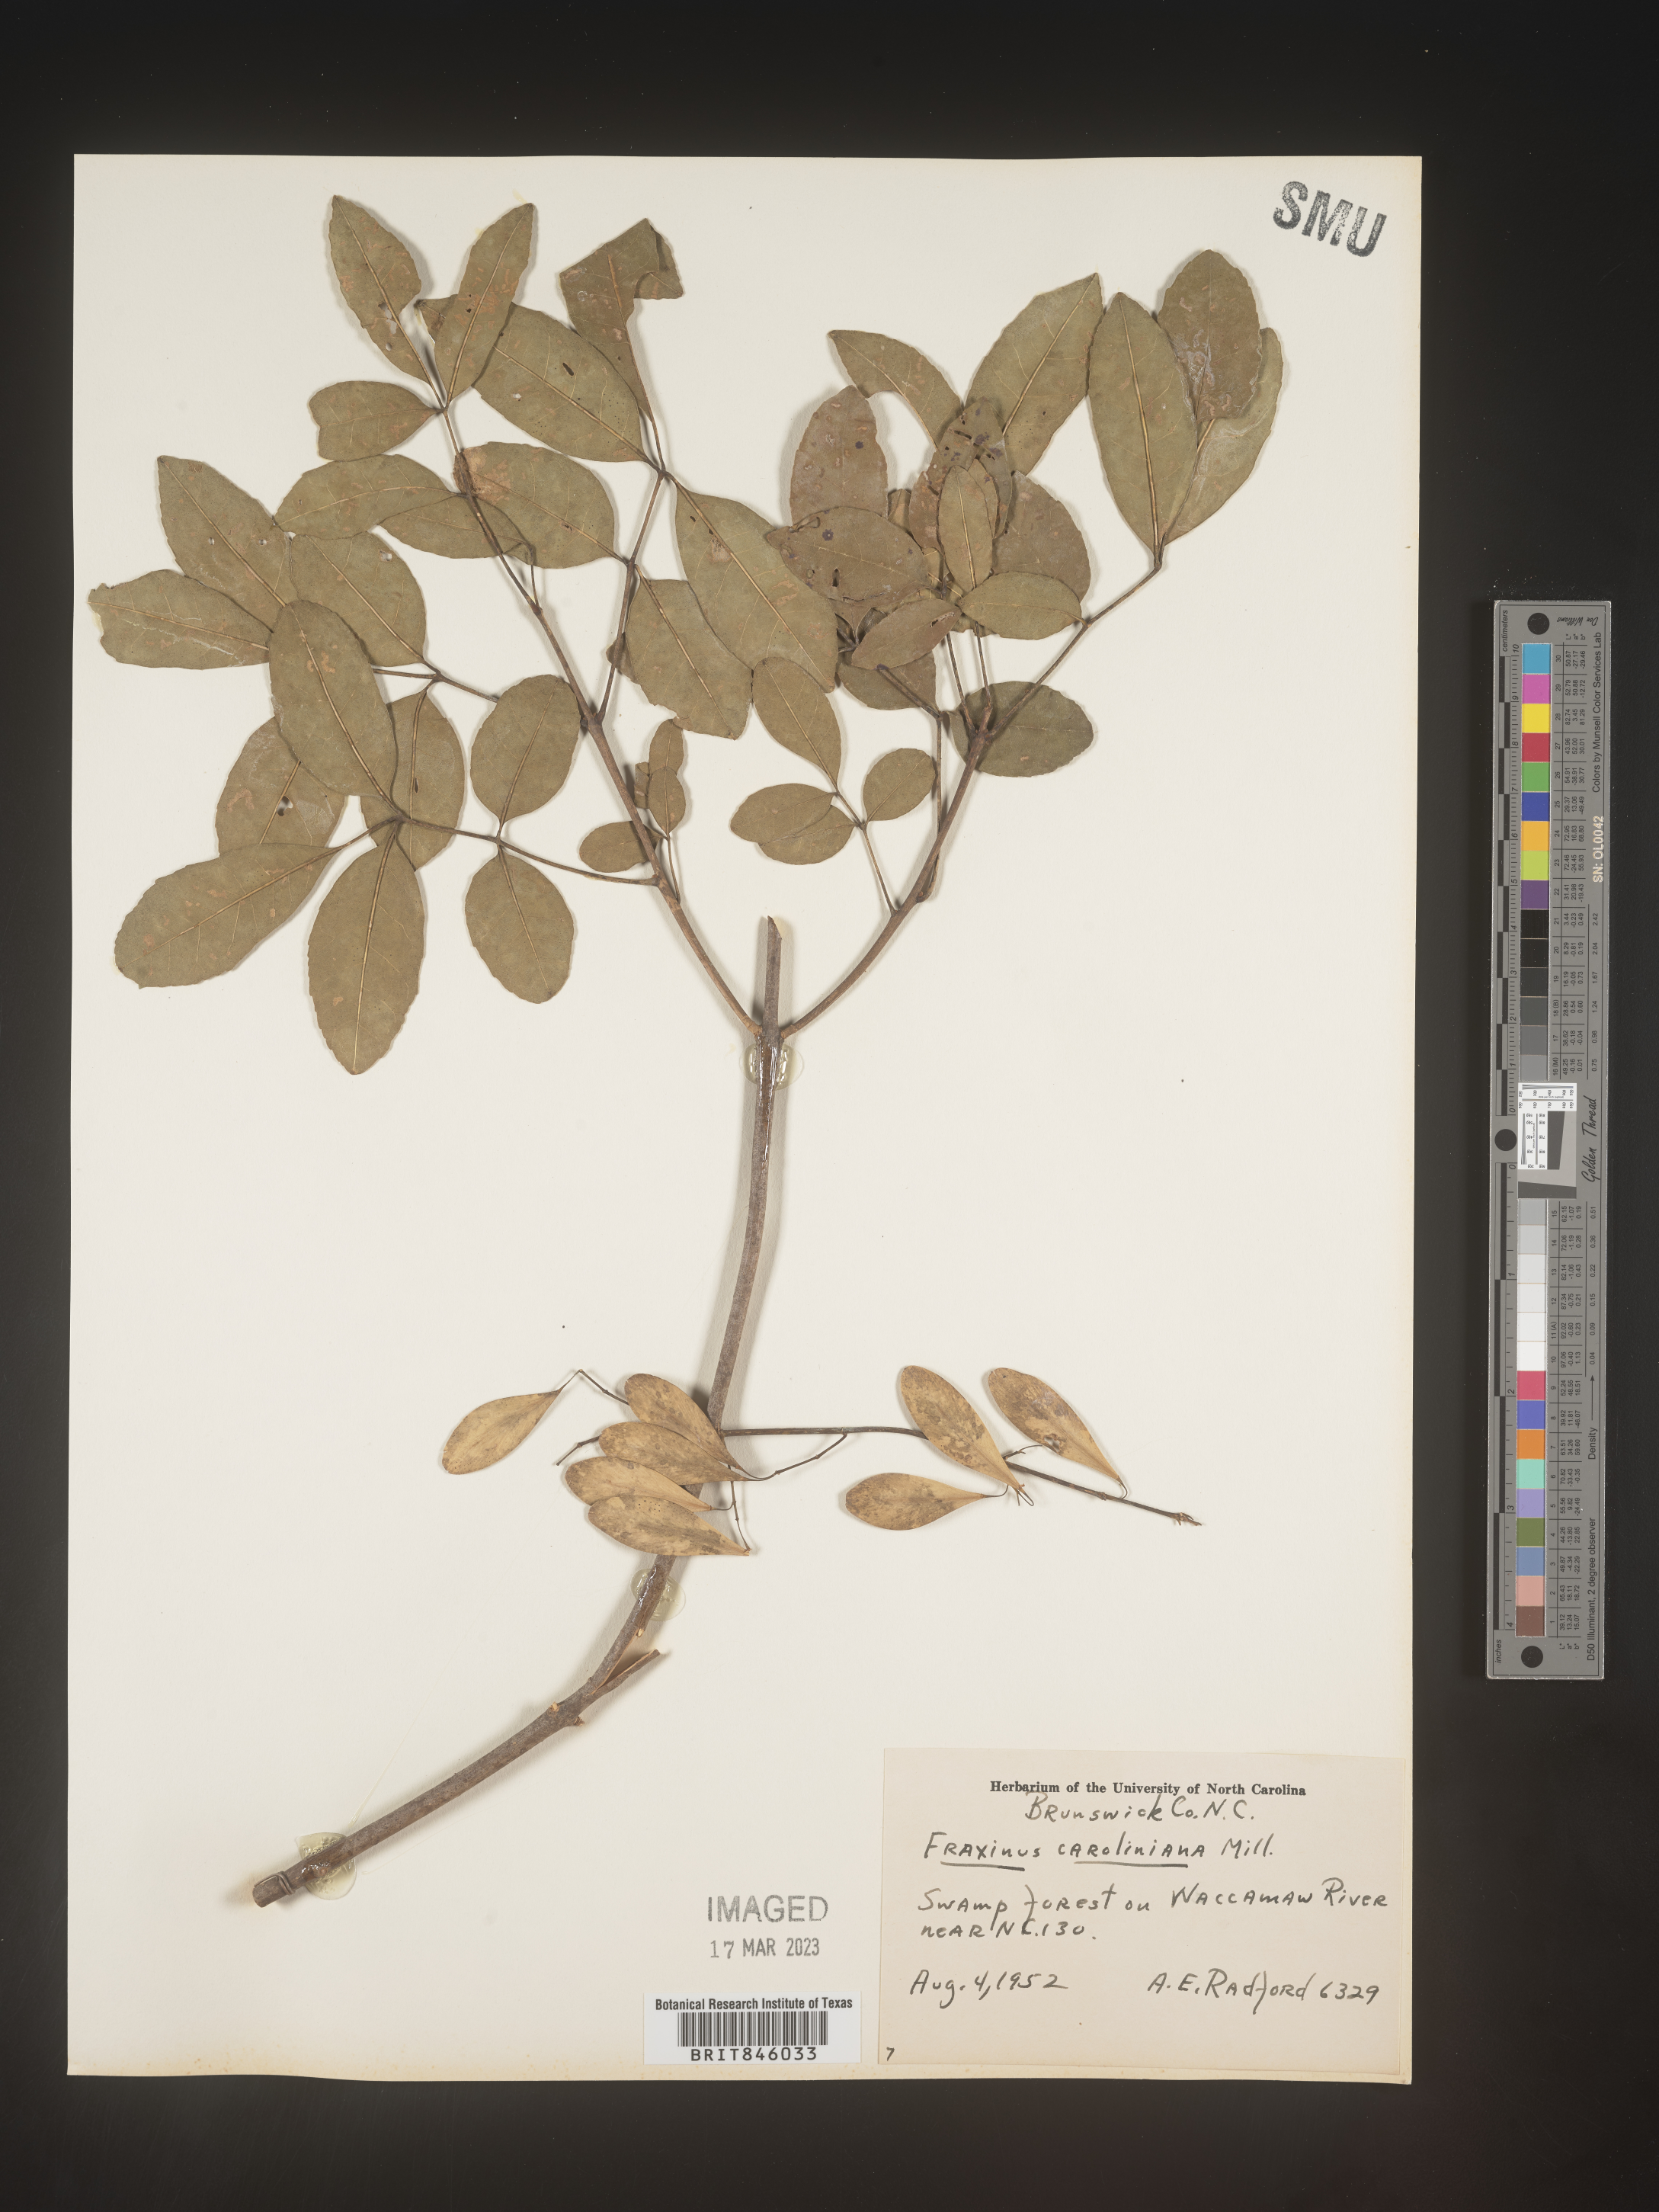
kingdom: Plantae
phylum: Tracheophyta
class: Magnoliopsida
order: Lamiales
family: Oleaceae
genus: Fraxinus
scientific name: Fraxinus caroliniana
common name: Carolina ash
